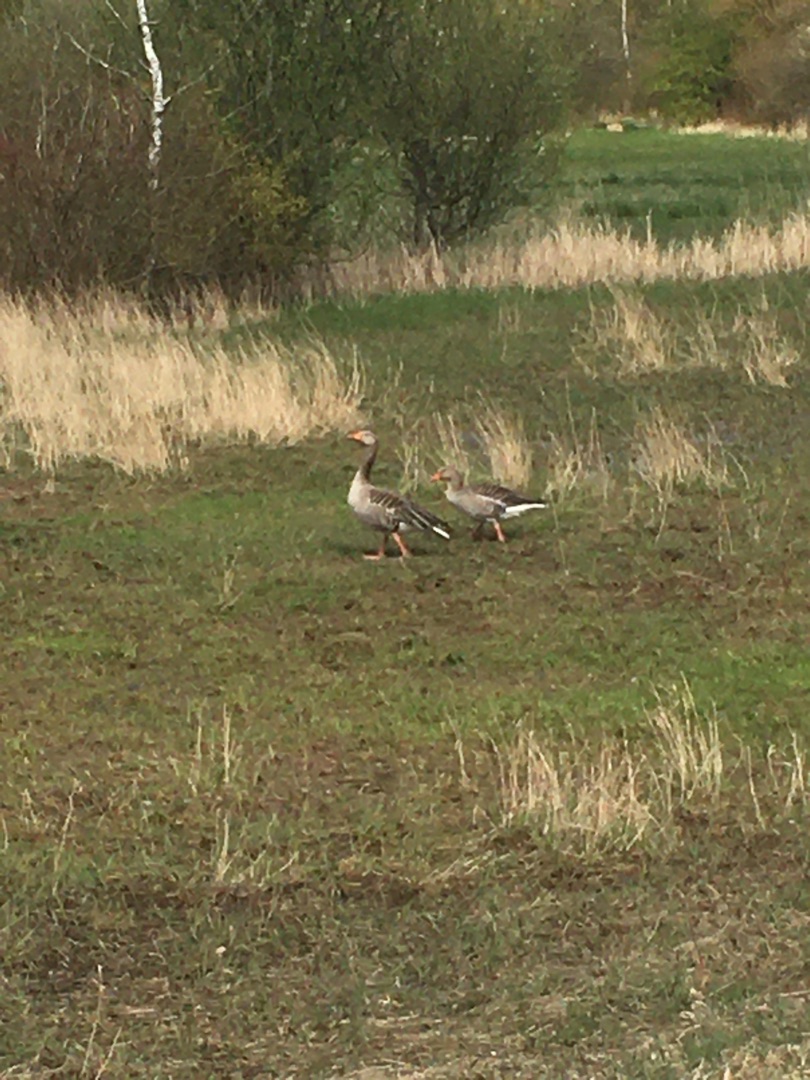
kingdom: Animalia
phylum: Chordata
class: Aves
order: Anseriformes
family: Anatidae
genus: Anser
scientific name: Anser anser
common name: Grågås
